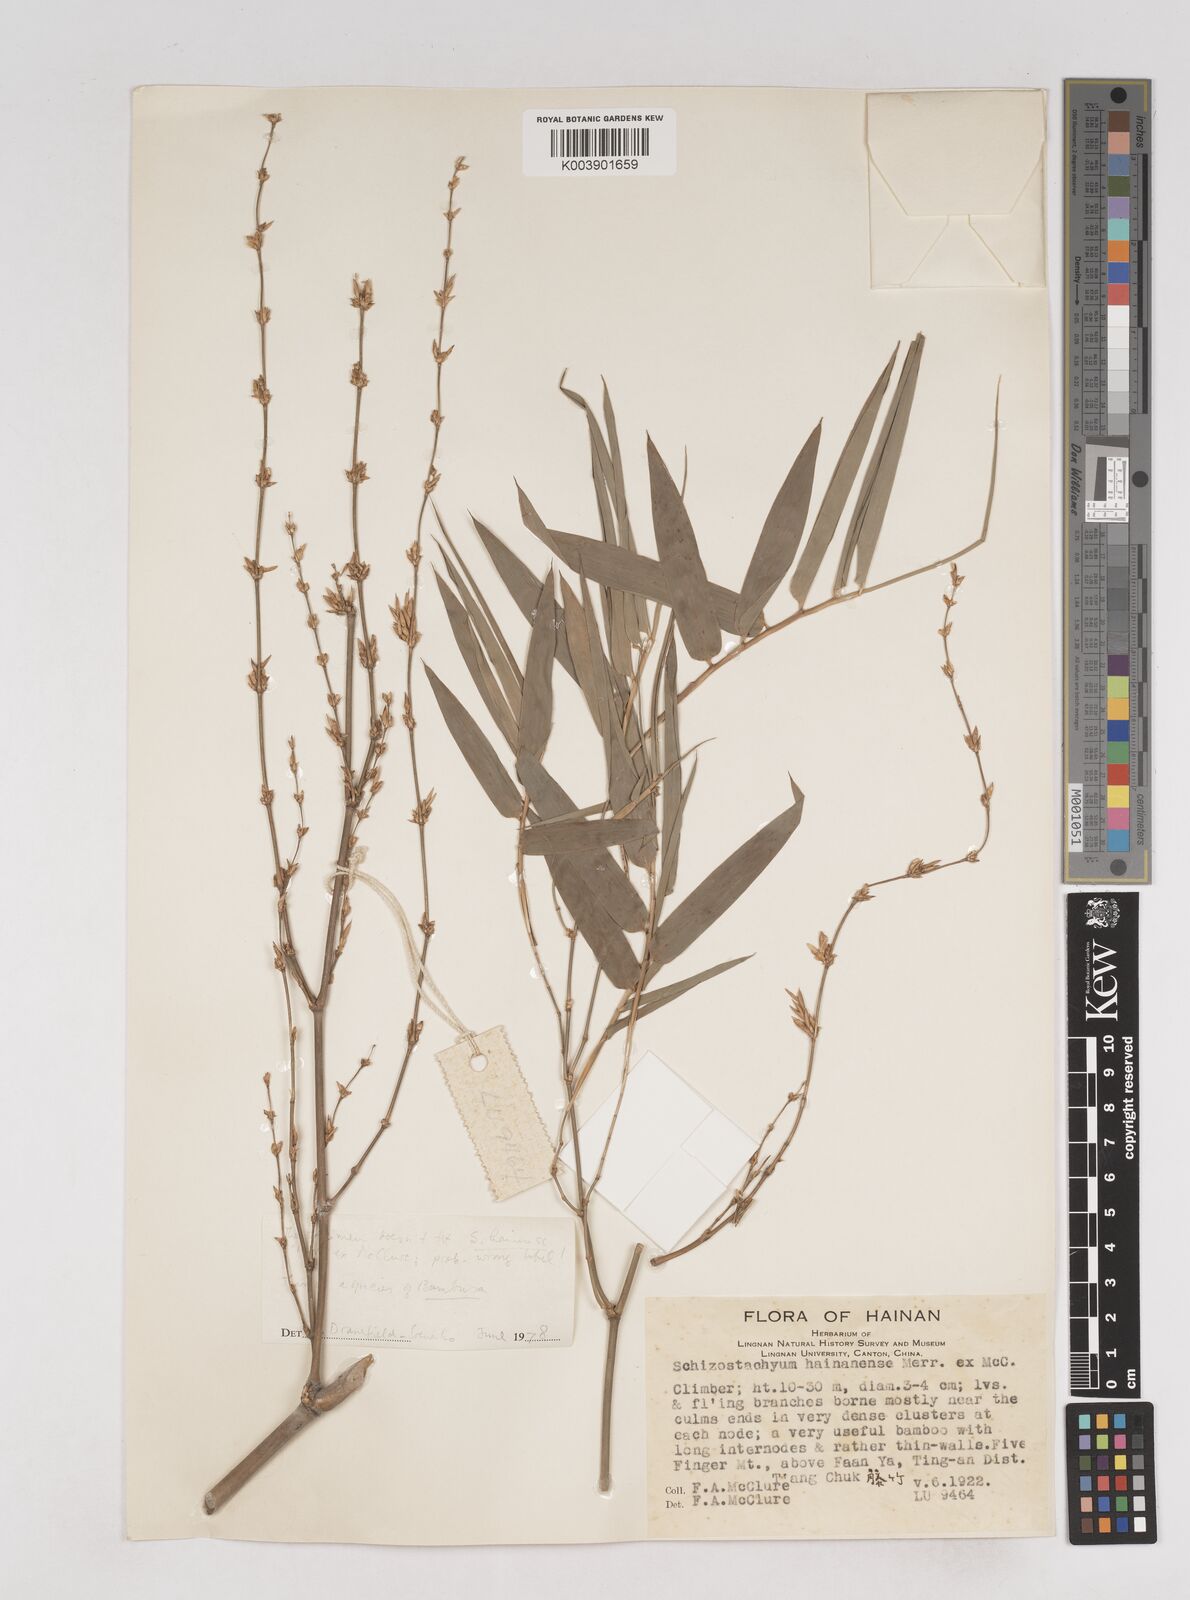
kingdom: Plantae
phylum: Tracheophyta
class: Liliopsida
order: Poales
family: Poaceae
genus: Schizostachyum
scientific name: Schizostachyum hainanense
